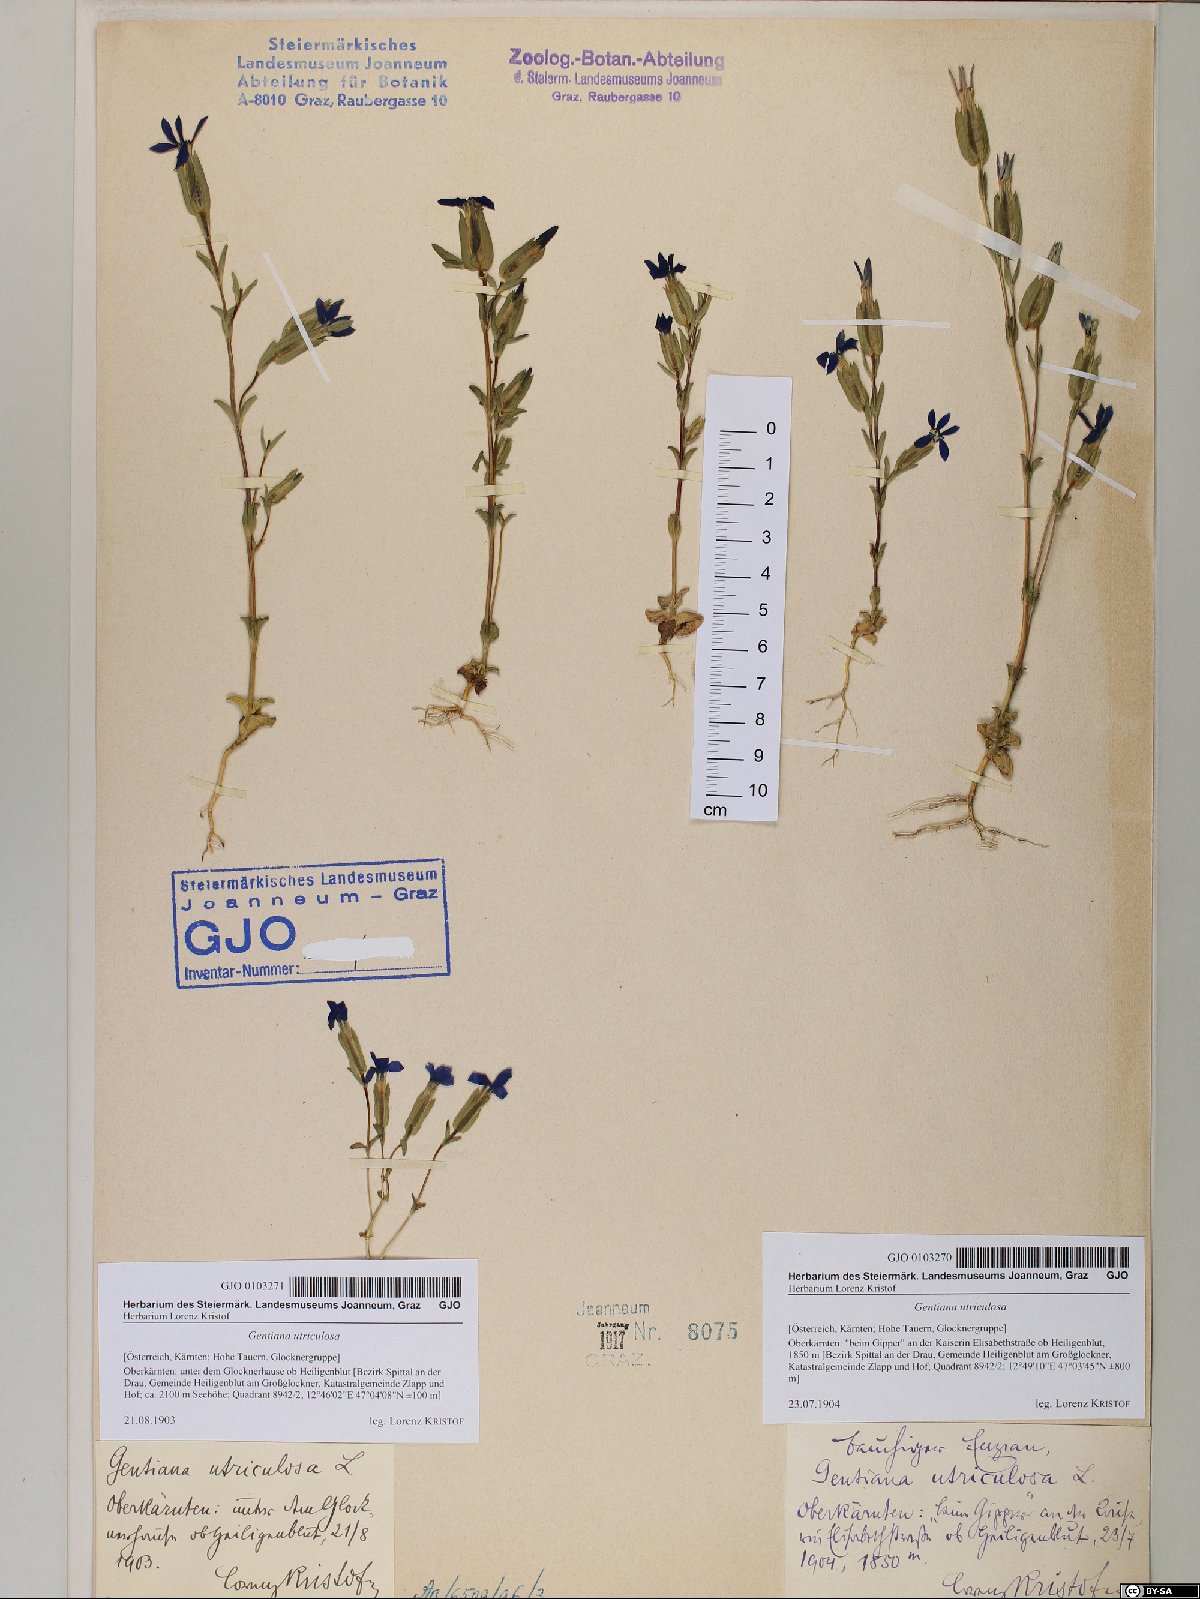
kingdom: Plantae
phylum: Tracheophyta
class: Magnoliopsida
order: Gentianales
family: Gentianaceae
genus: Gentiana
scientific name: Gentiana utriculosa
